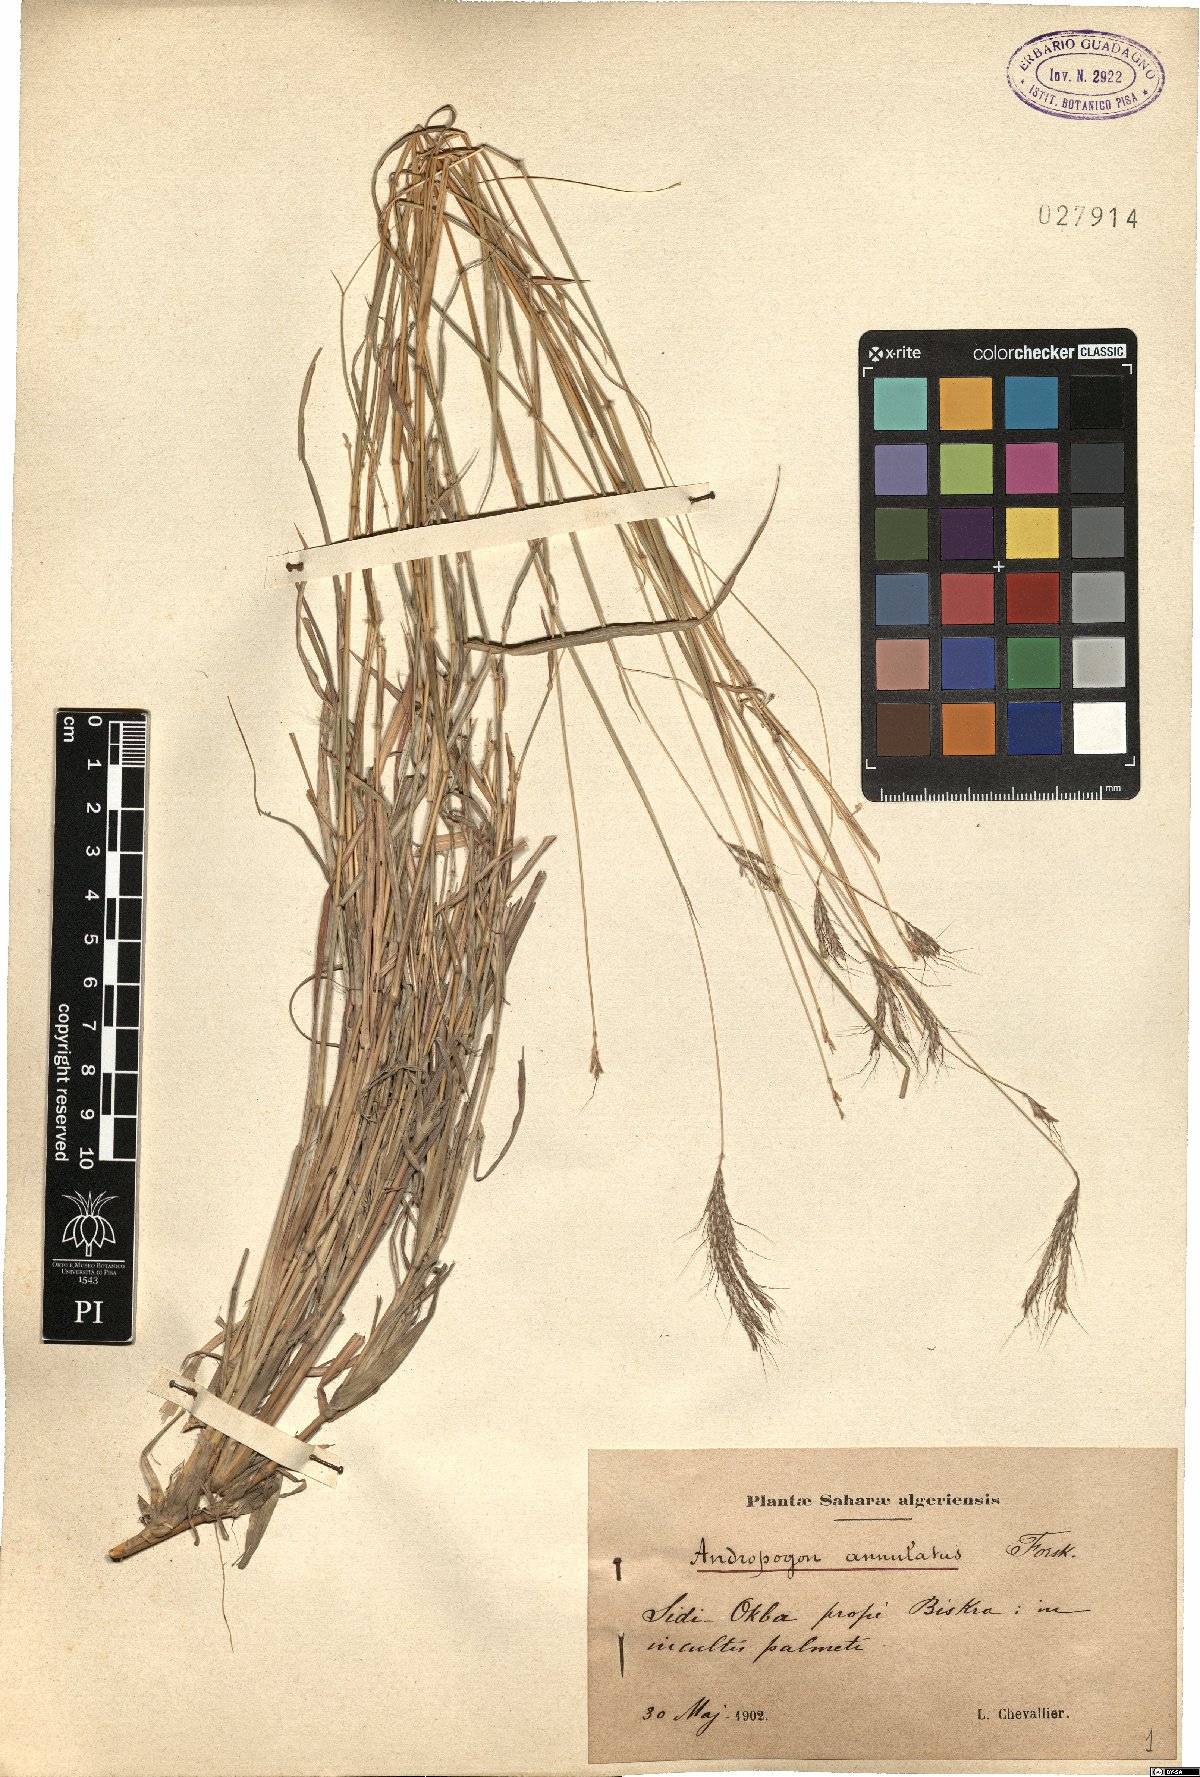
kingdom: Plantae
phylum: Tracheophyta
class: Liliopsida
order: Poales
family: Poaceae
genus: Dichanthium
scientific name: Dichanthium annulatum
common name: Kleberg's bluestem
